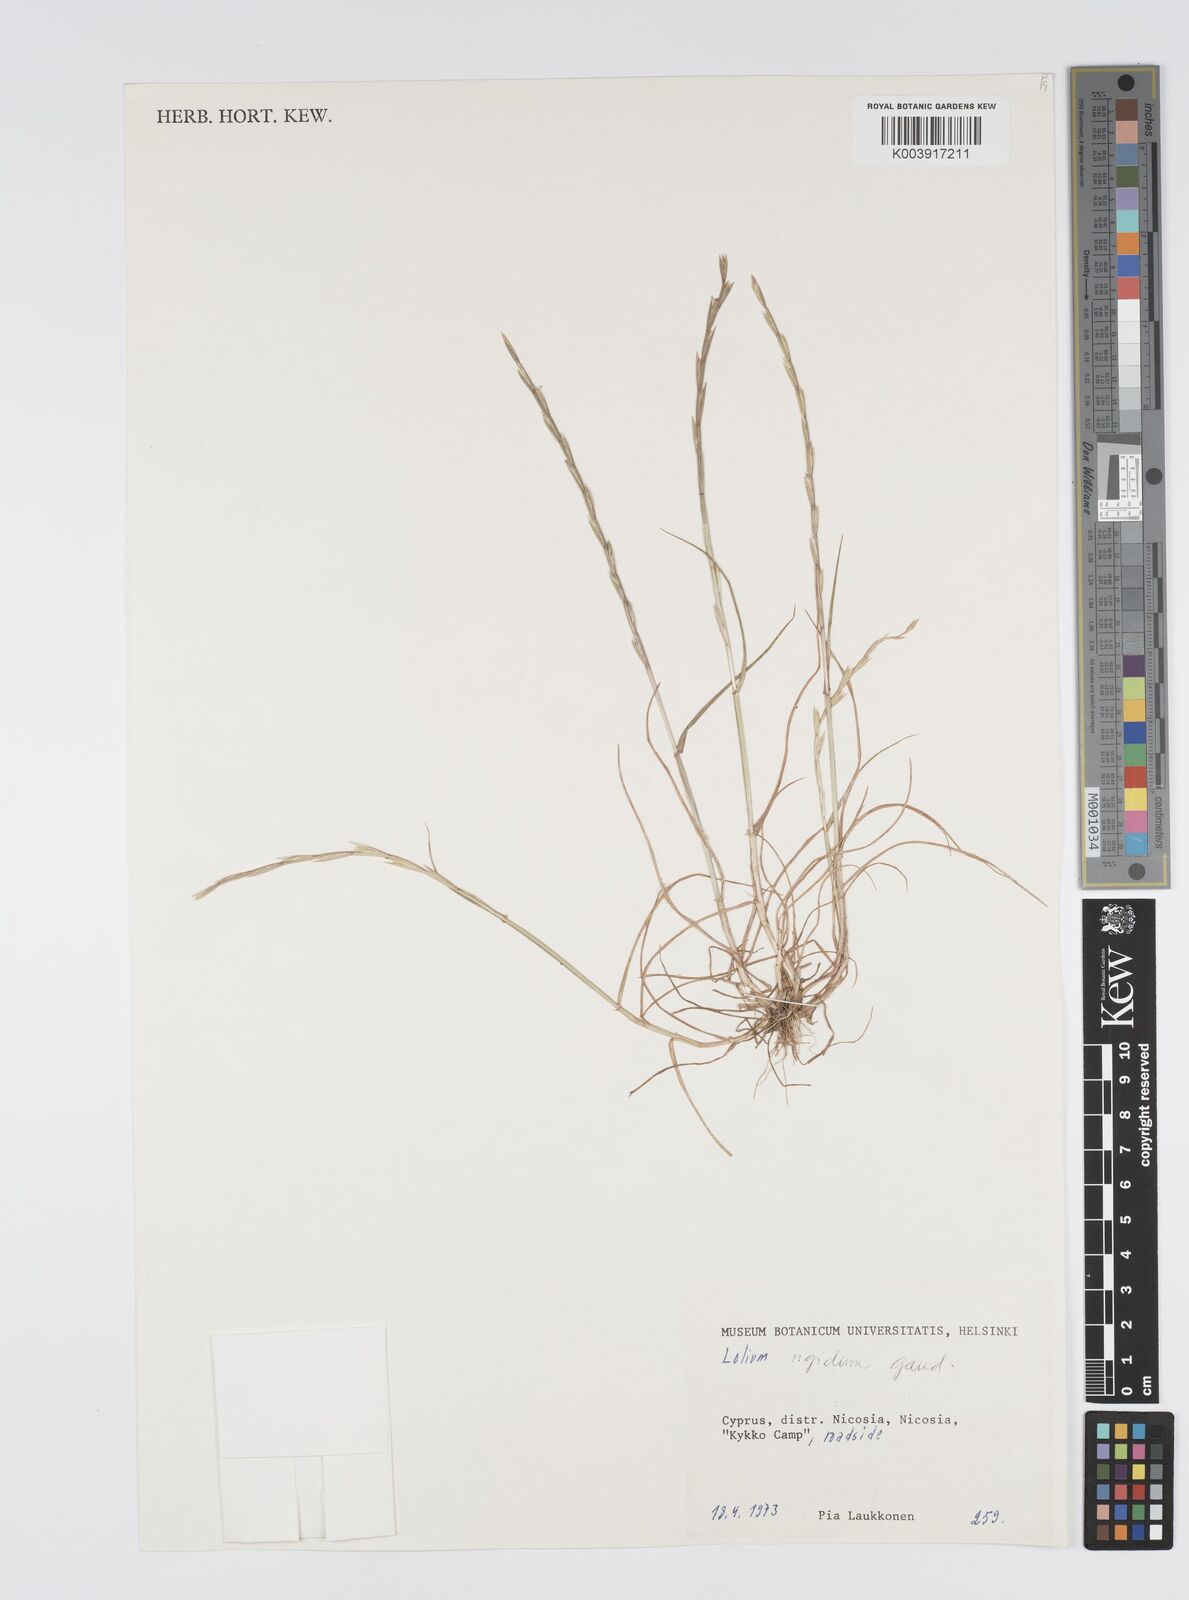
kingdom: Plantae
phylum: Tracheophyta
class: Liliopsida
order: Poales
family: Poaceae
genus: Lolium
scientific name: Lolium rigidum
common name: Wimmera ryegrass
